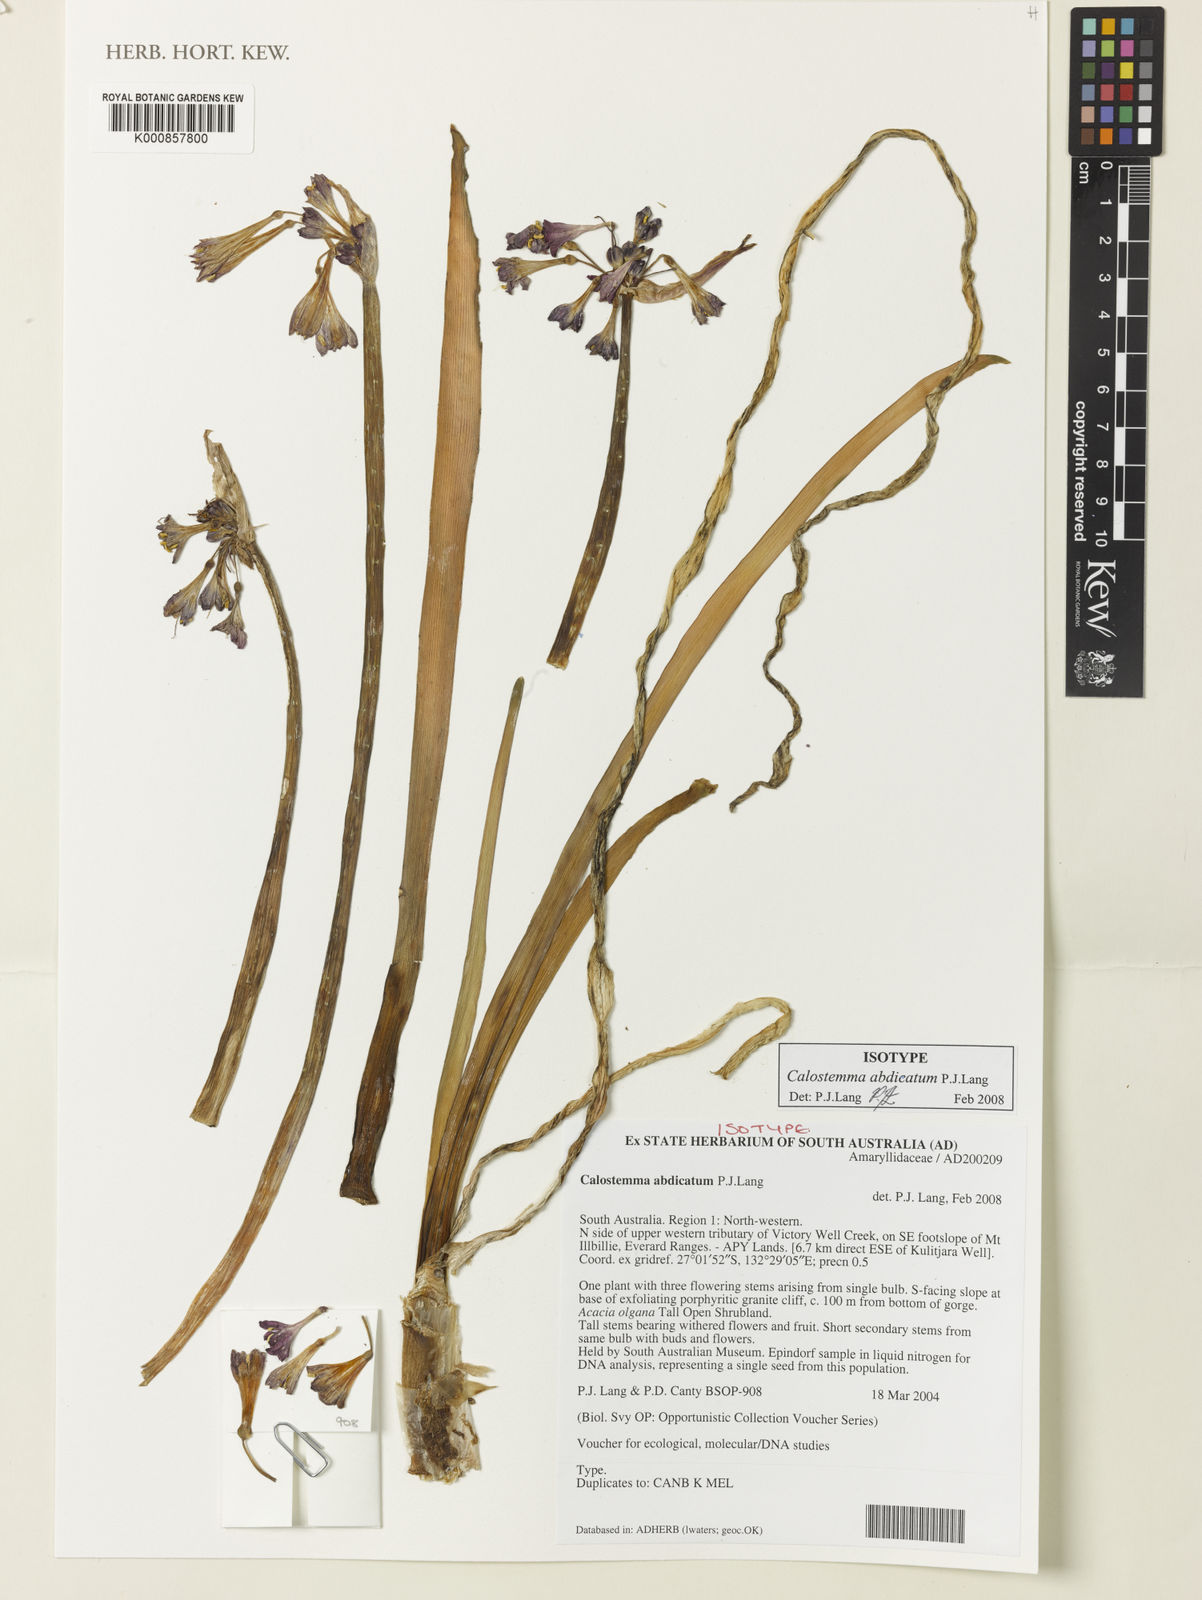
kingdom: Plantae
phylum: Tracheophyta
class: Liliopsida
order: Asparagales
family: Amaryllidaceae
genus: Calostemma
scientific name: Calostemma abdicatum
